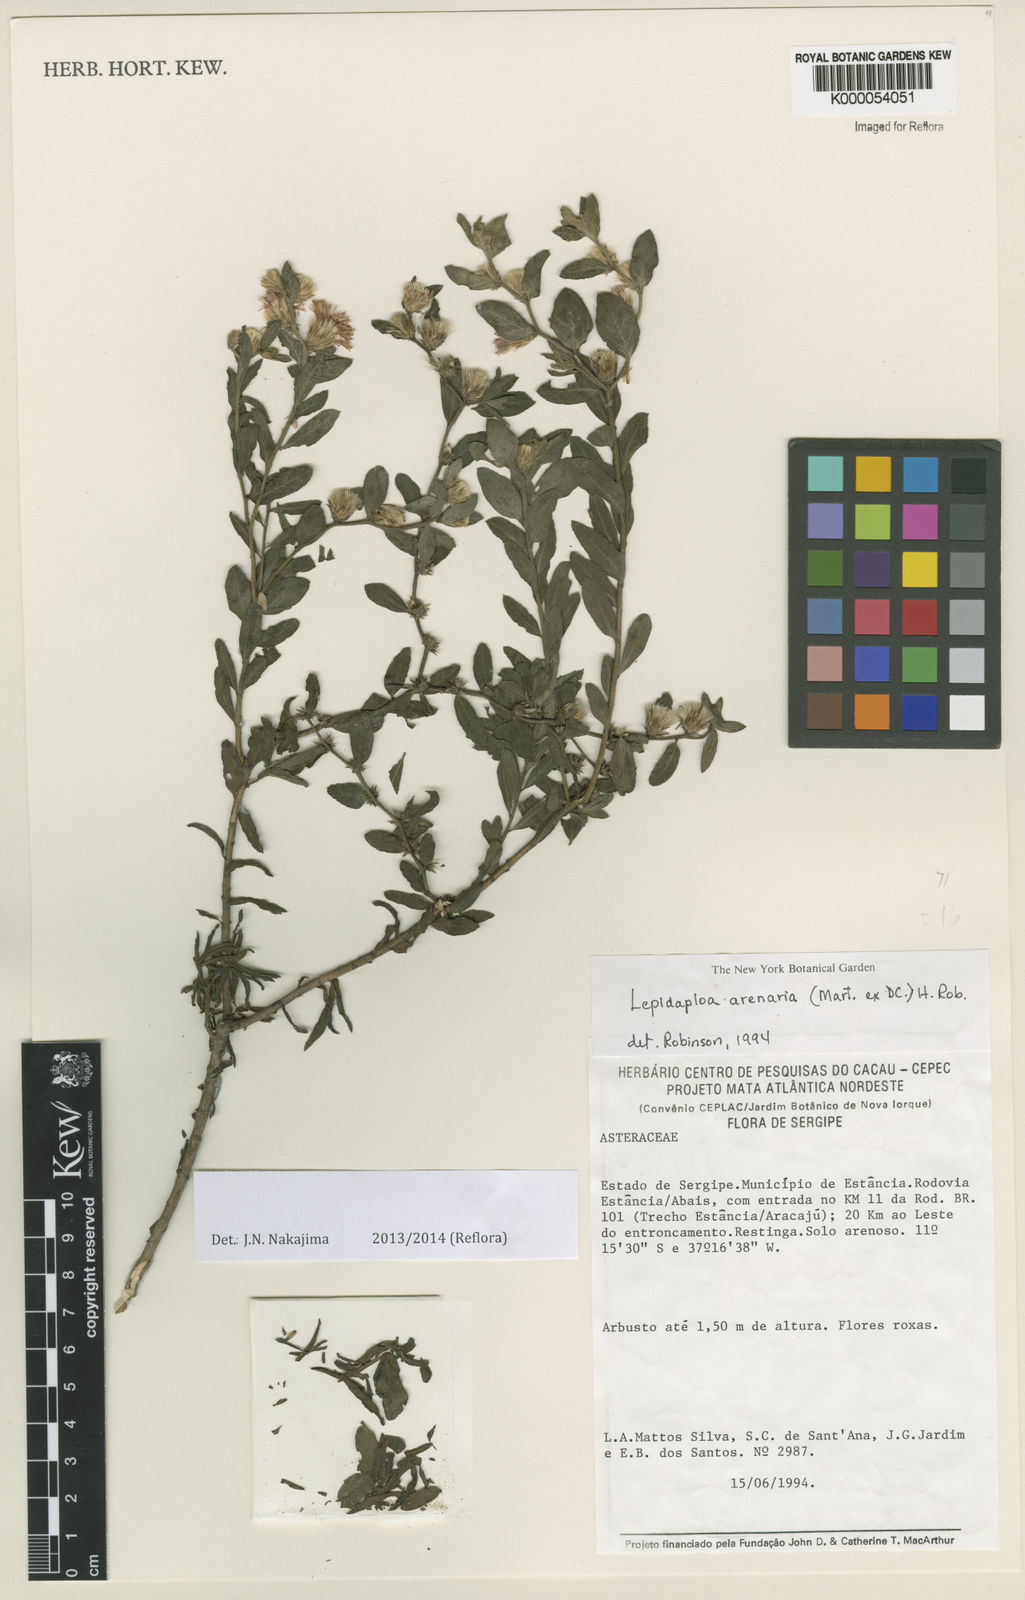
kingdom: Plantae
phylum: Tracheophyta
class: Magnoliopsida
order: Asterales
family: Asteraceae
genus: Lepidaploa
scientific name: Lepidaploa arenaria
